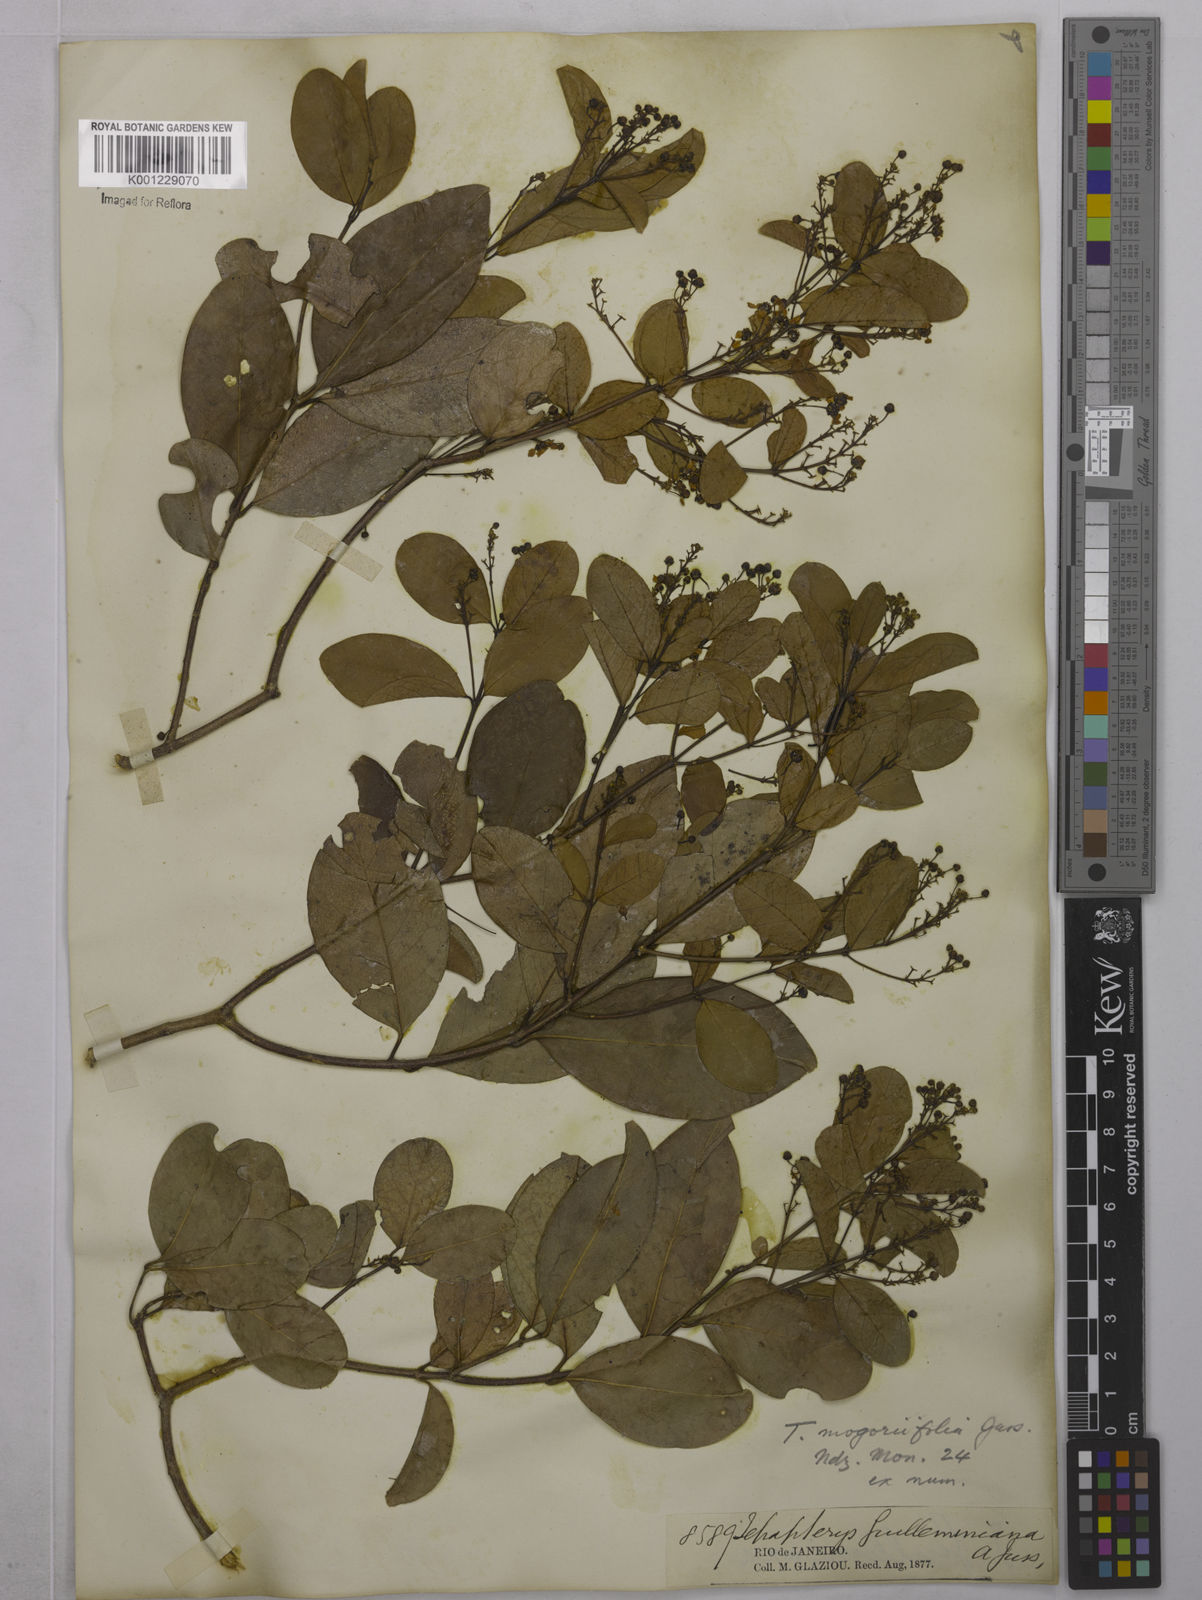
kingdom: Plantae
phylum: Tracheophyta
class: Magnoliopsida
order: Malpighiales
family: Malpighiaceae
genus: Niedenzuella
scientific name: Niedenzuella mogoriifolia
